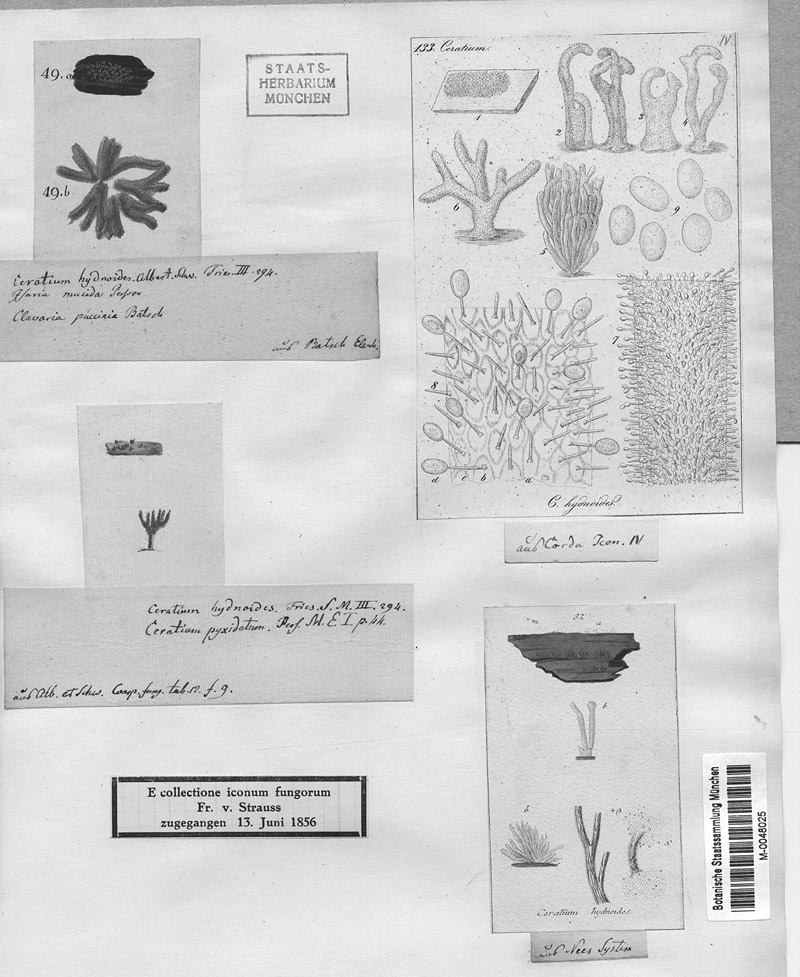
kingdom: Protozoa
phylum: Mycetozoa
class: Protosteliomycetes
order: Ceratiomyxales
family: Ceratiomyxaceae
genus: Ceratiomyxa
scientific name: Ceratiomyxa fruticulosa
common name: Honeycomb coral slime mold
